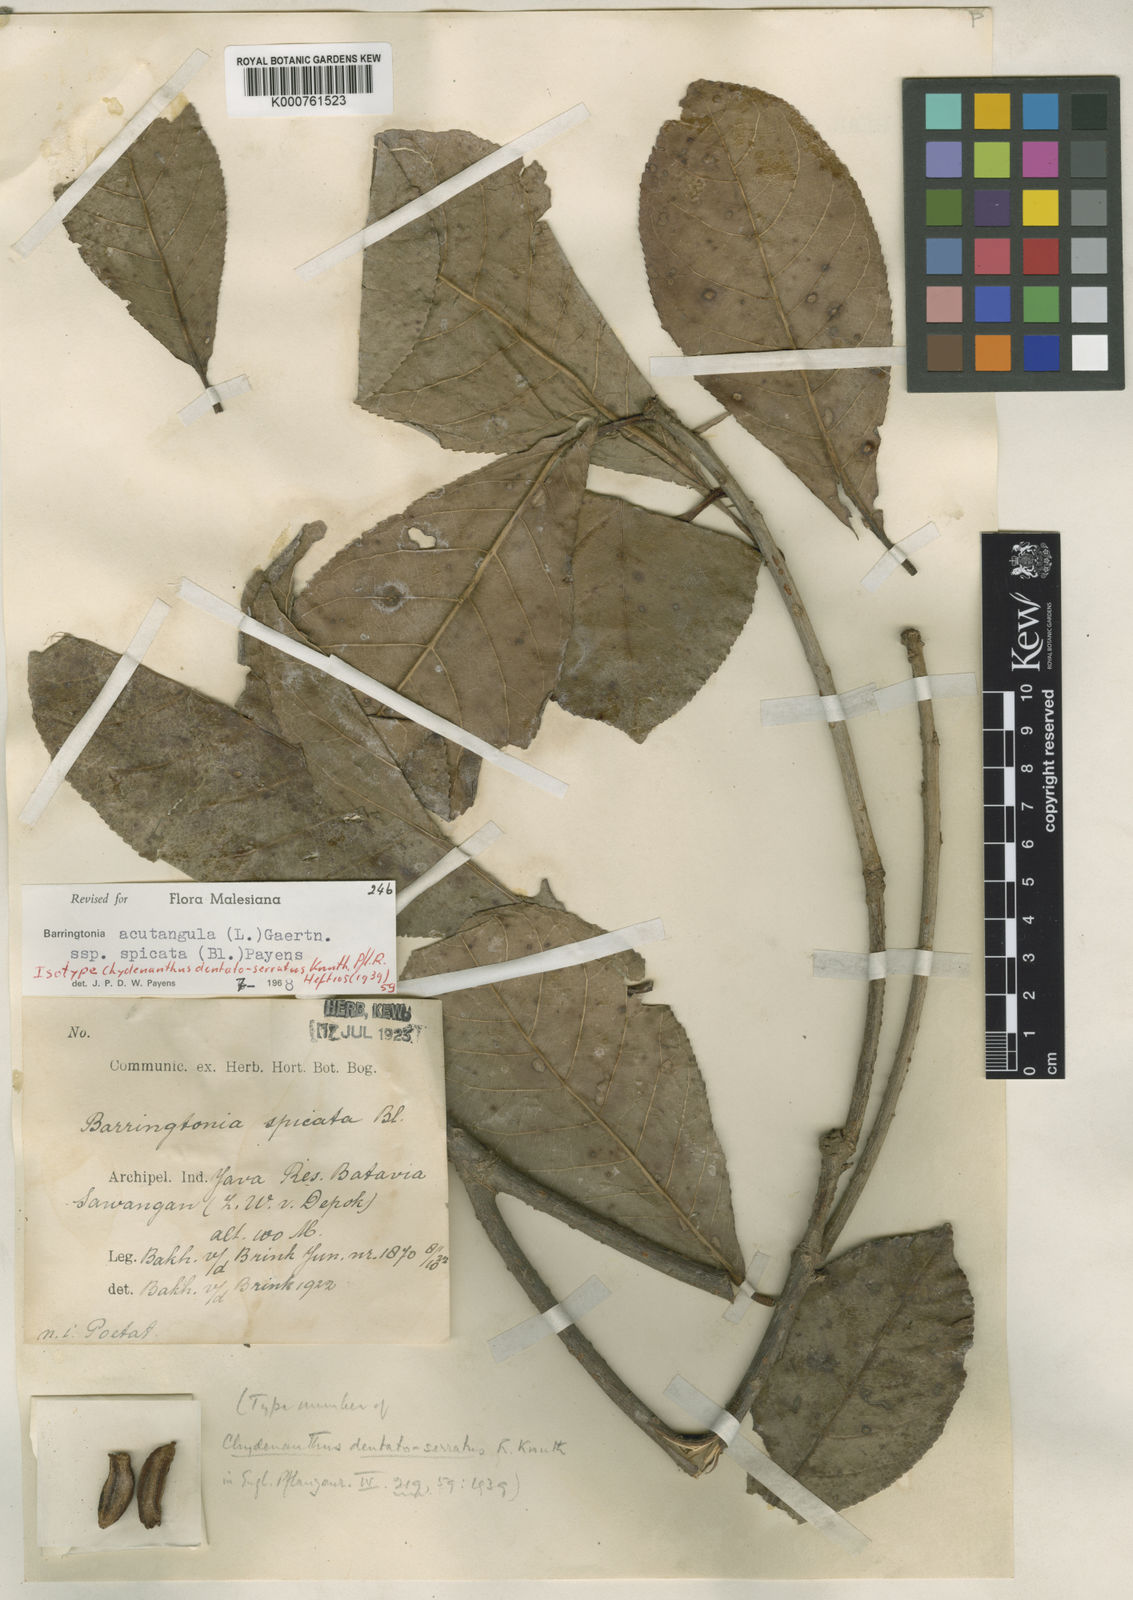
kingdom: Plantae
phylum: Tracheophyta
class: Magnoliopsida
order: Ericales
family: Lecythidaceae
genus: Barringtonia
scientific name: Barringtonia acutangula
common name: Freshwater mangrove
